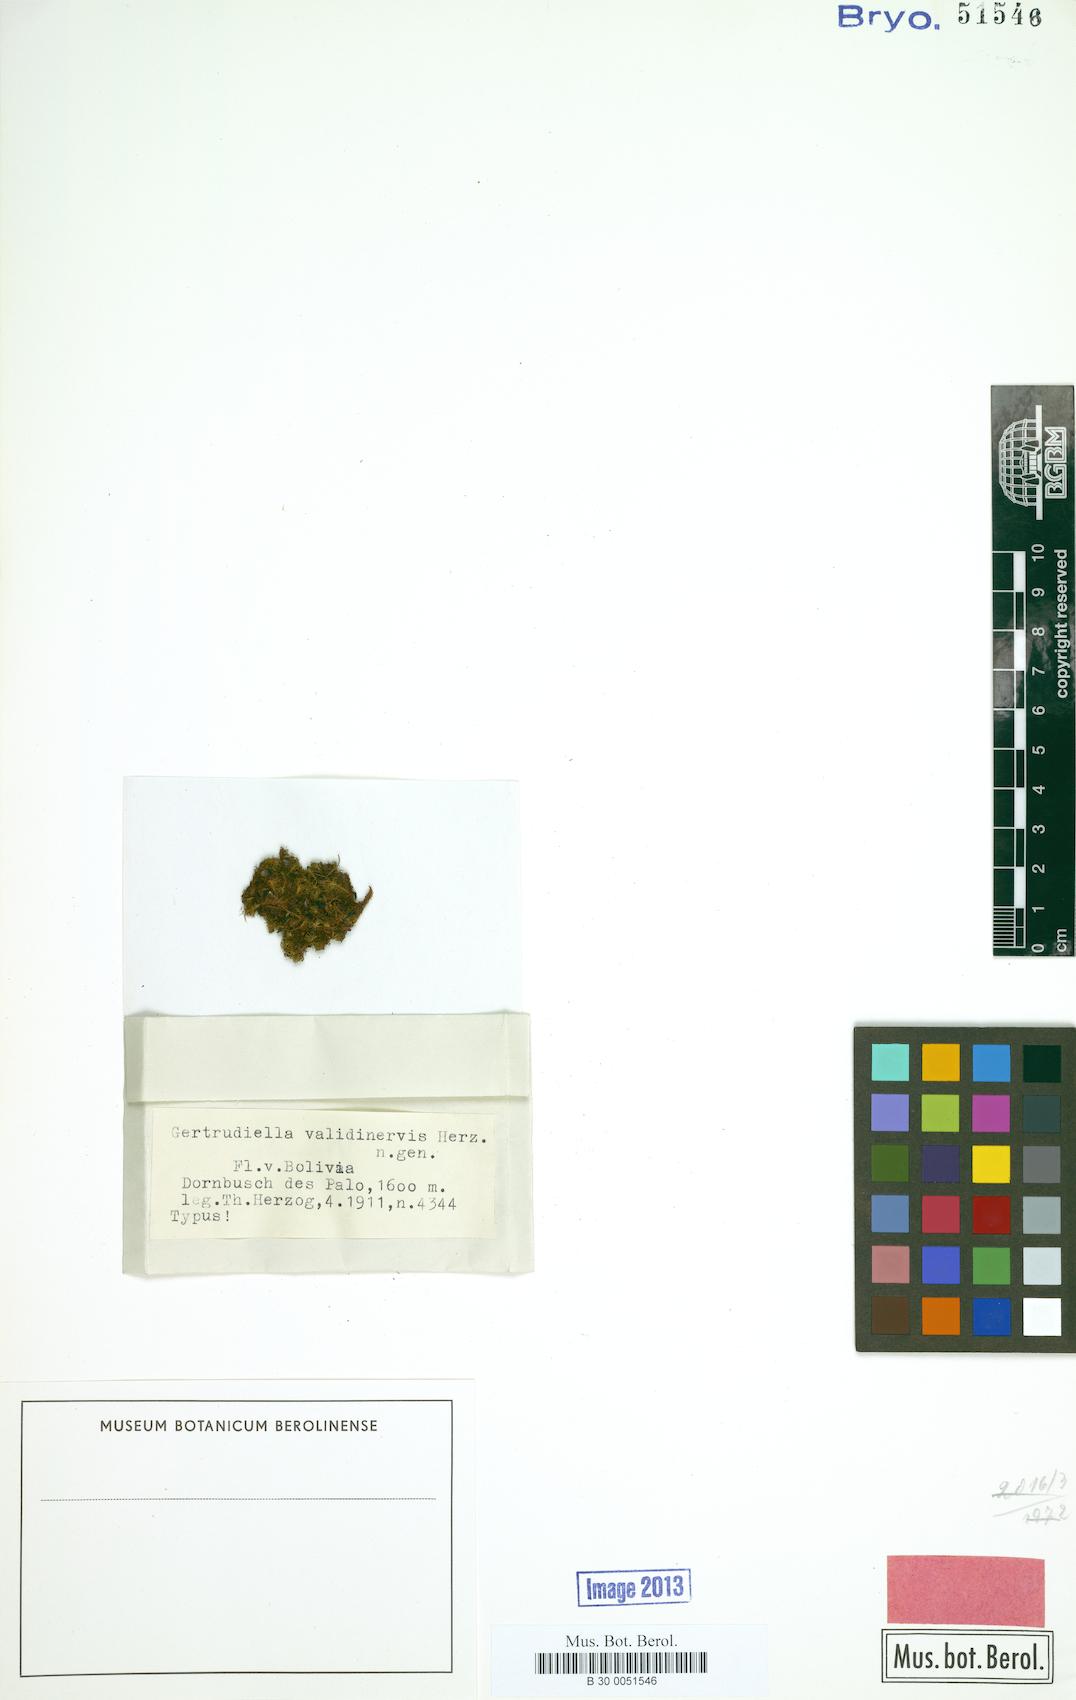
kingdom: Plantae
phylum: Bryophyta
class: Bryopsida
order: Pottiales
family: Pottiaceae
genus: Gertrudiella
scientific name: Gertrudiella uncinicoma
